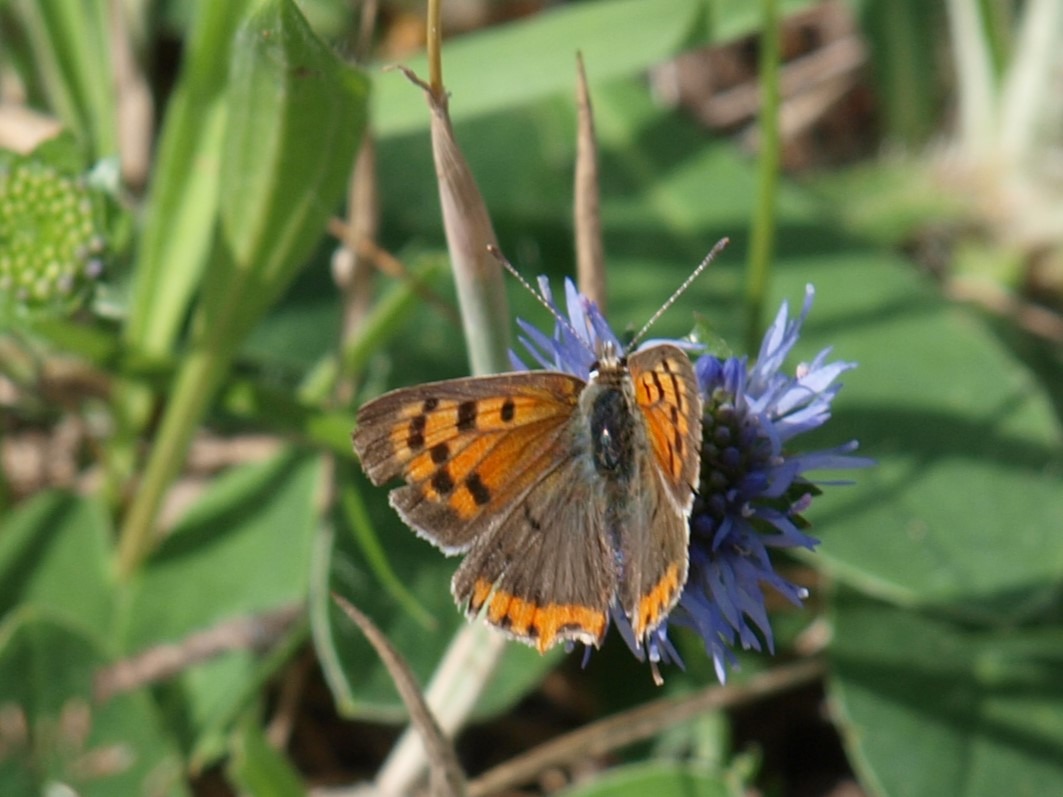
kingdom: Animalia
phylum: Arthropoda
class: Insecta
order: Lepidoptera
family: Lycaenidae
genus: Lycaena
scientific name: Lycaena phlaeas
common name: Lille ildfugl
